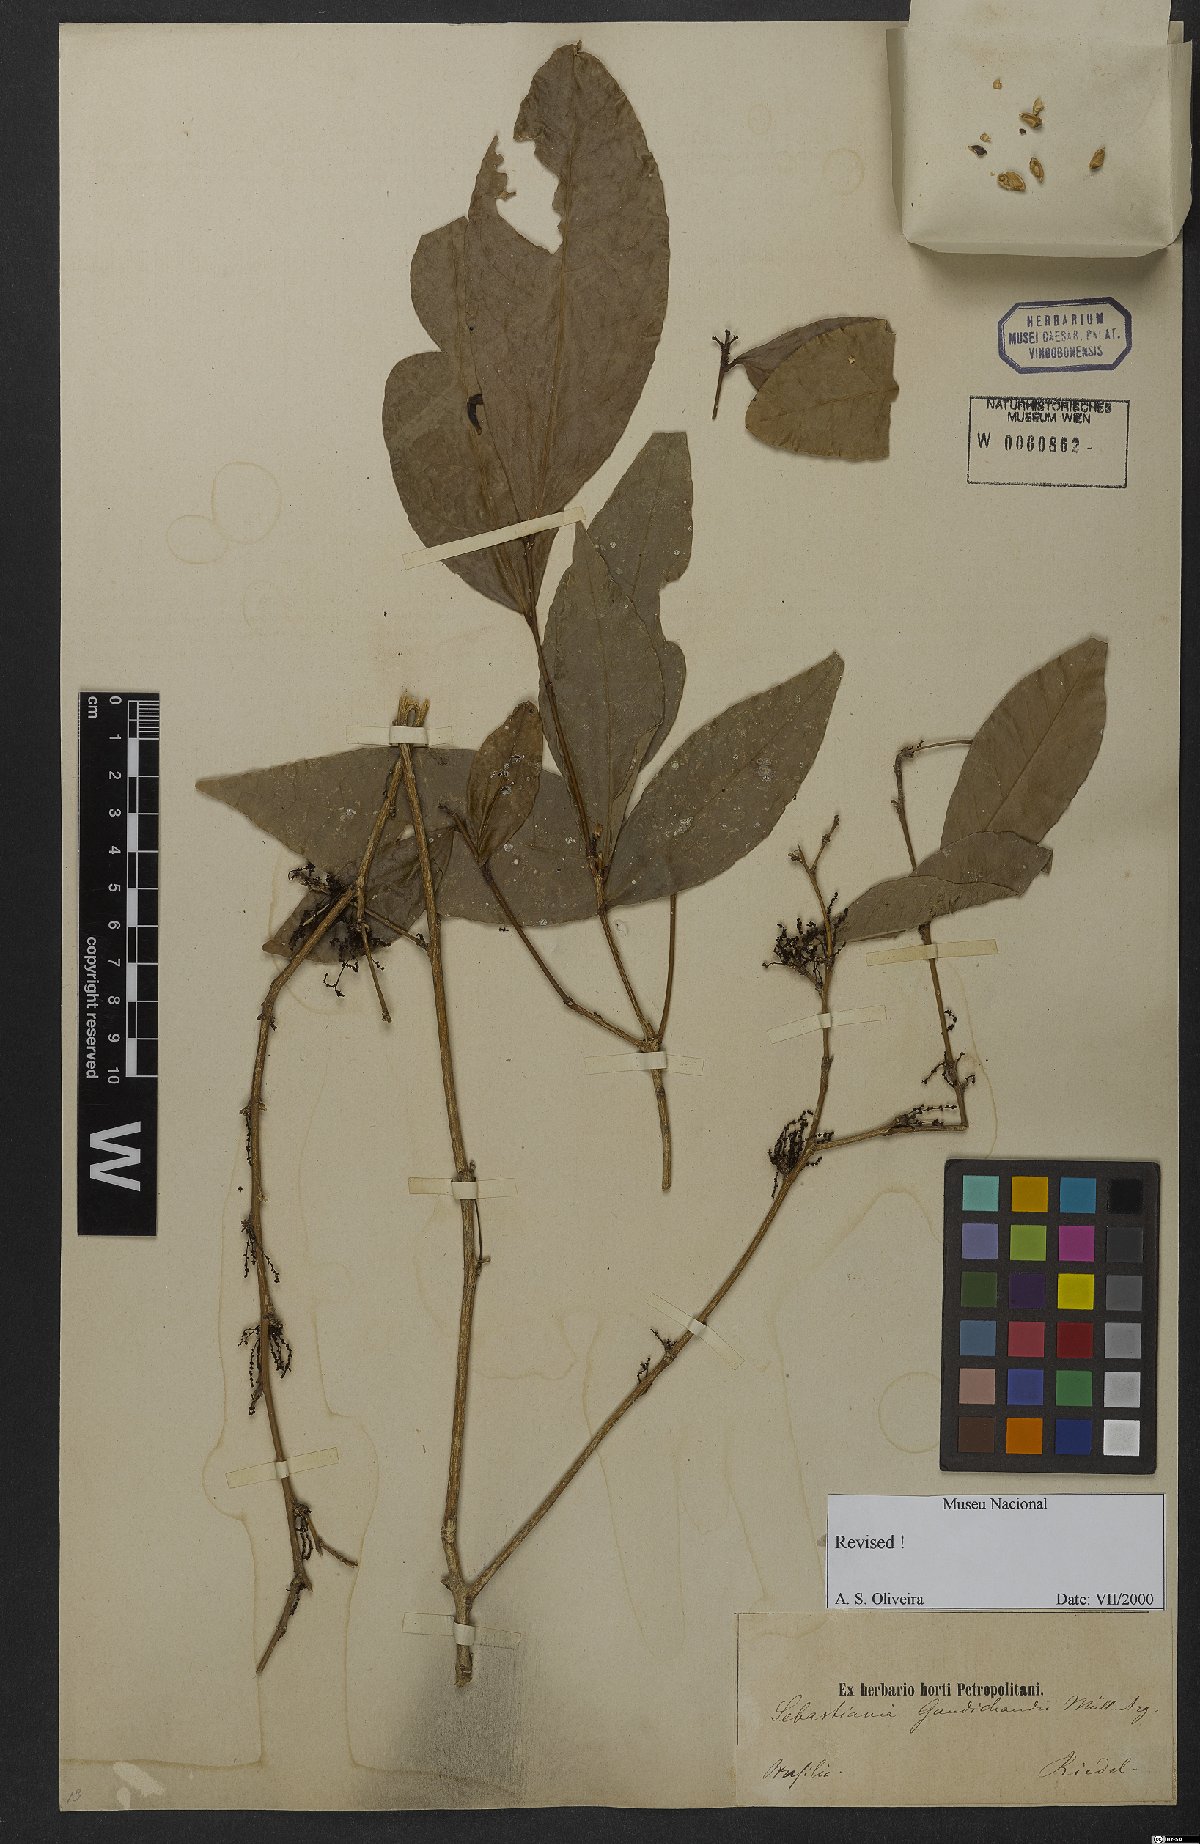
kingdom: Plantae
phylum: Tracheophyta
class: Magnoliopsida
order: Malpighiales
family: Euphorbiaceae
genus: Gymnanthes
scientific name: Gymnanthes gaudichaudii
